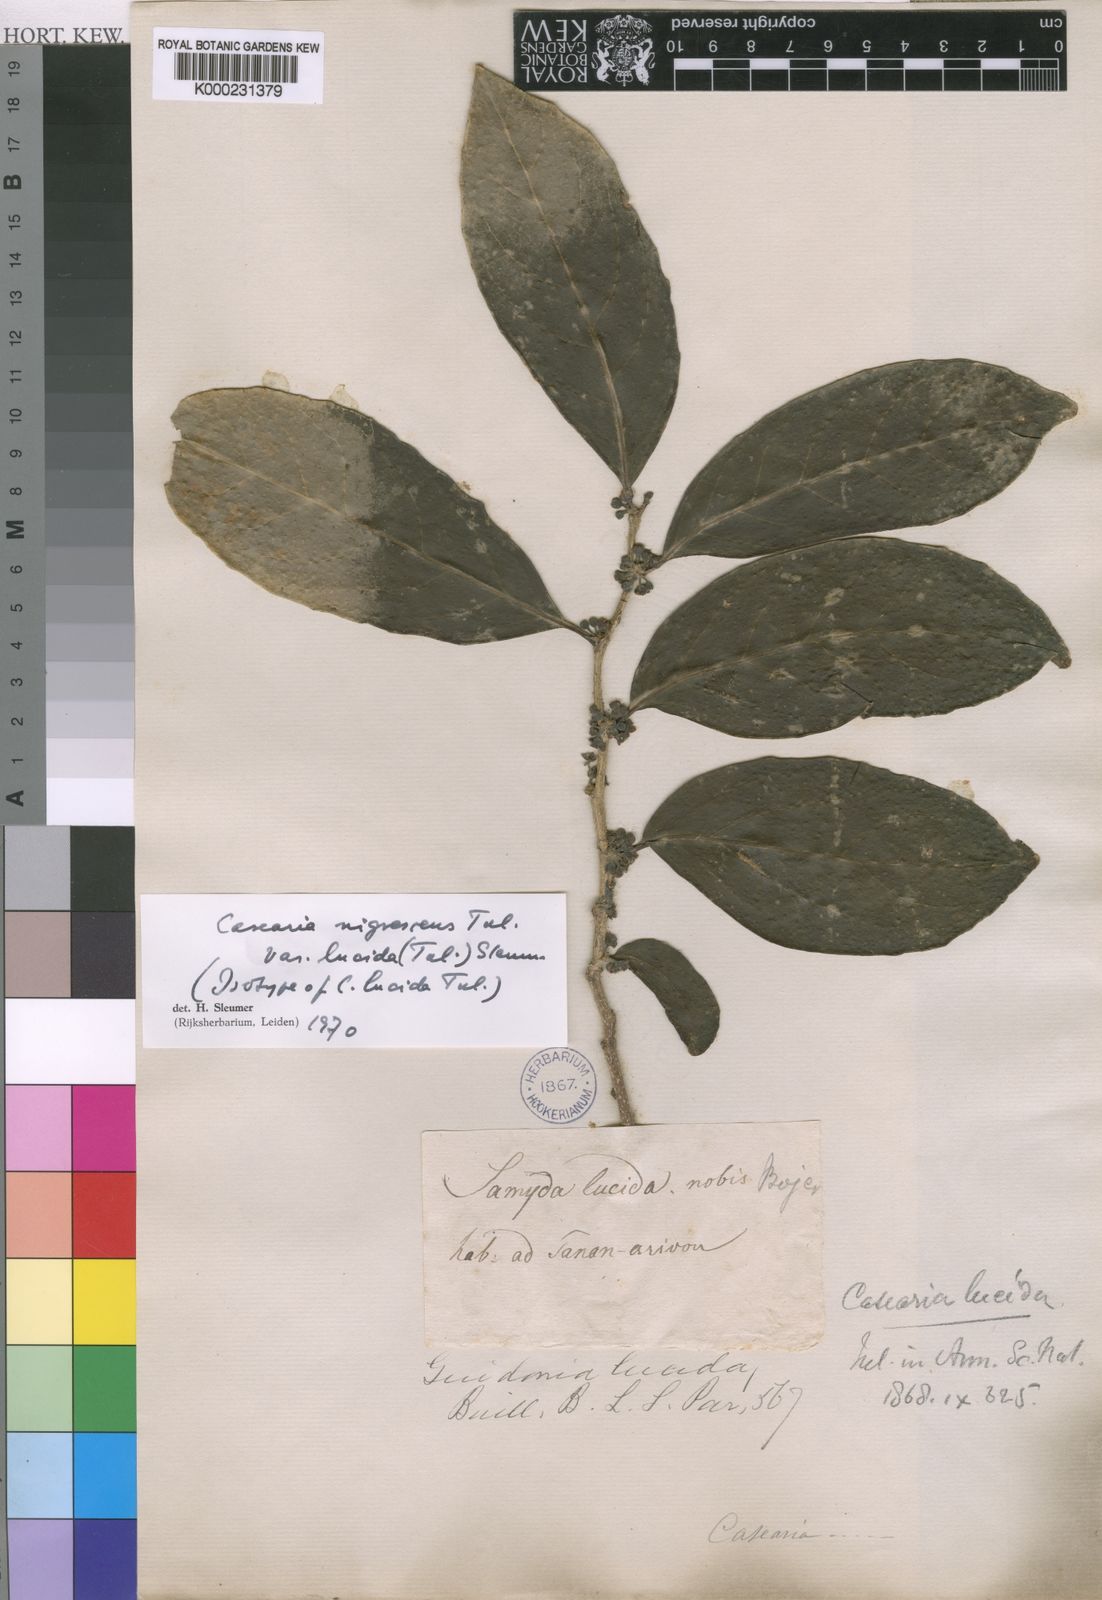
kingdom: Plantae
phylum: Tracheophyta
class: Magnoliopsida
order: Malpighiales
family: Salicaceae
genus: Casearia
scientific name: Casearia nigrescens
